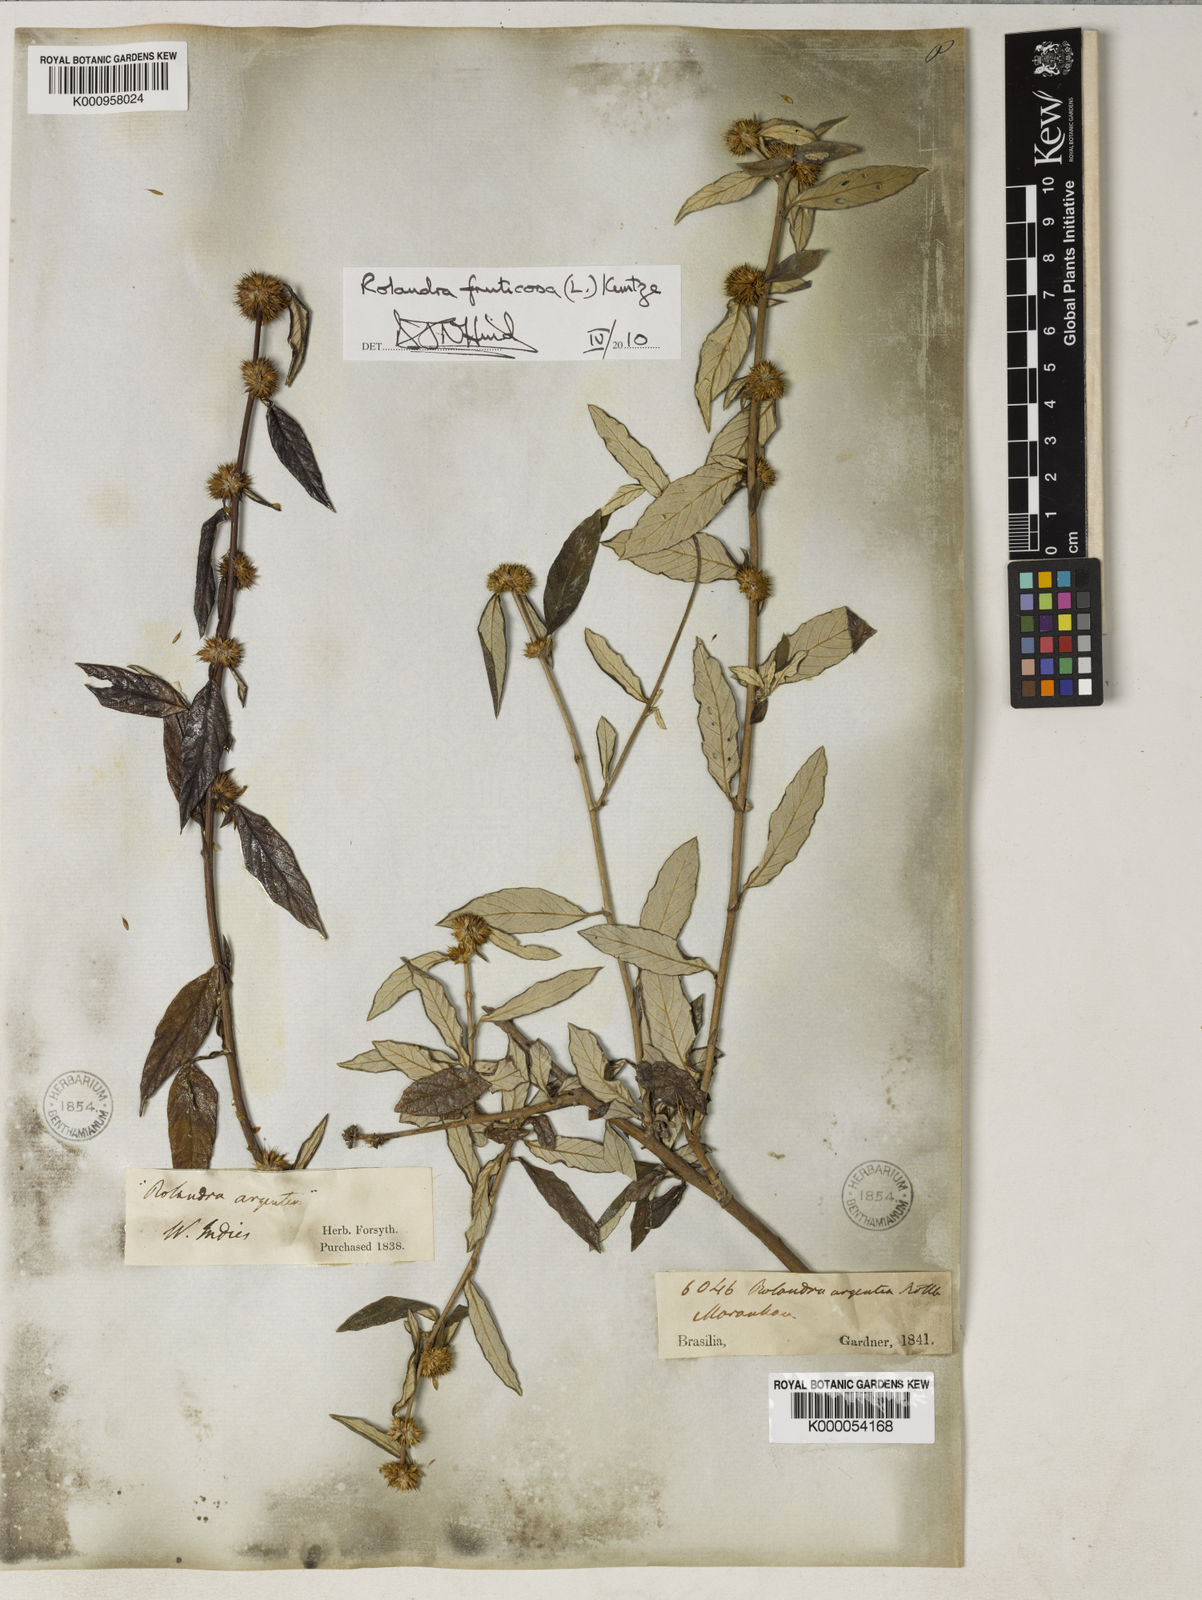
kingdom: Plantae
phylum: Tracheophyta
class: Magnoliopsida
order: Asterales
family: Asteraceae
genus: Rolandra
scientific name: Rolandra fruticosa
